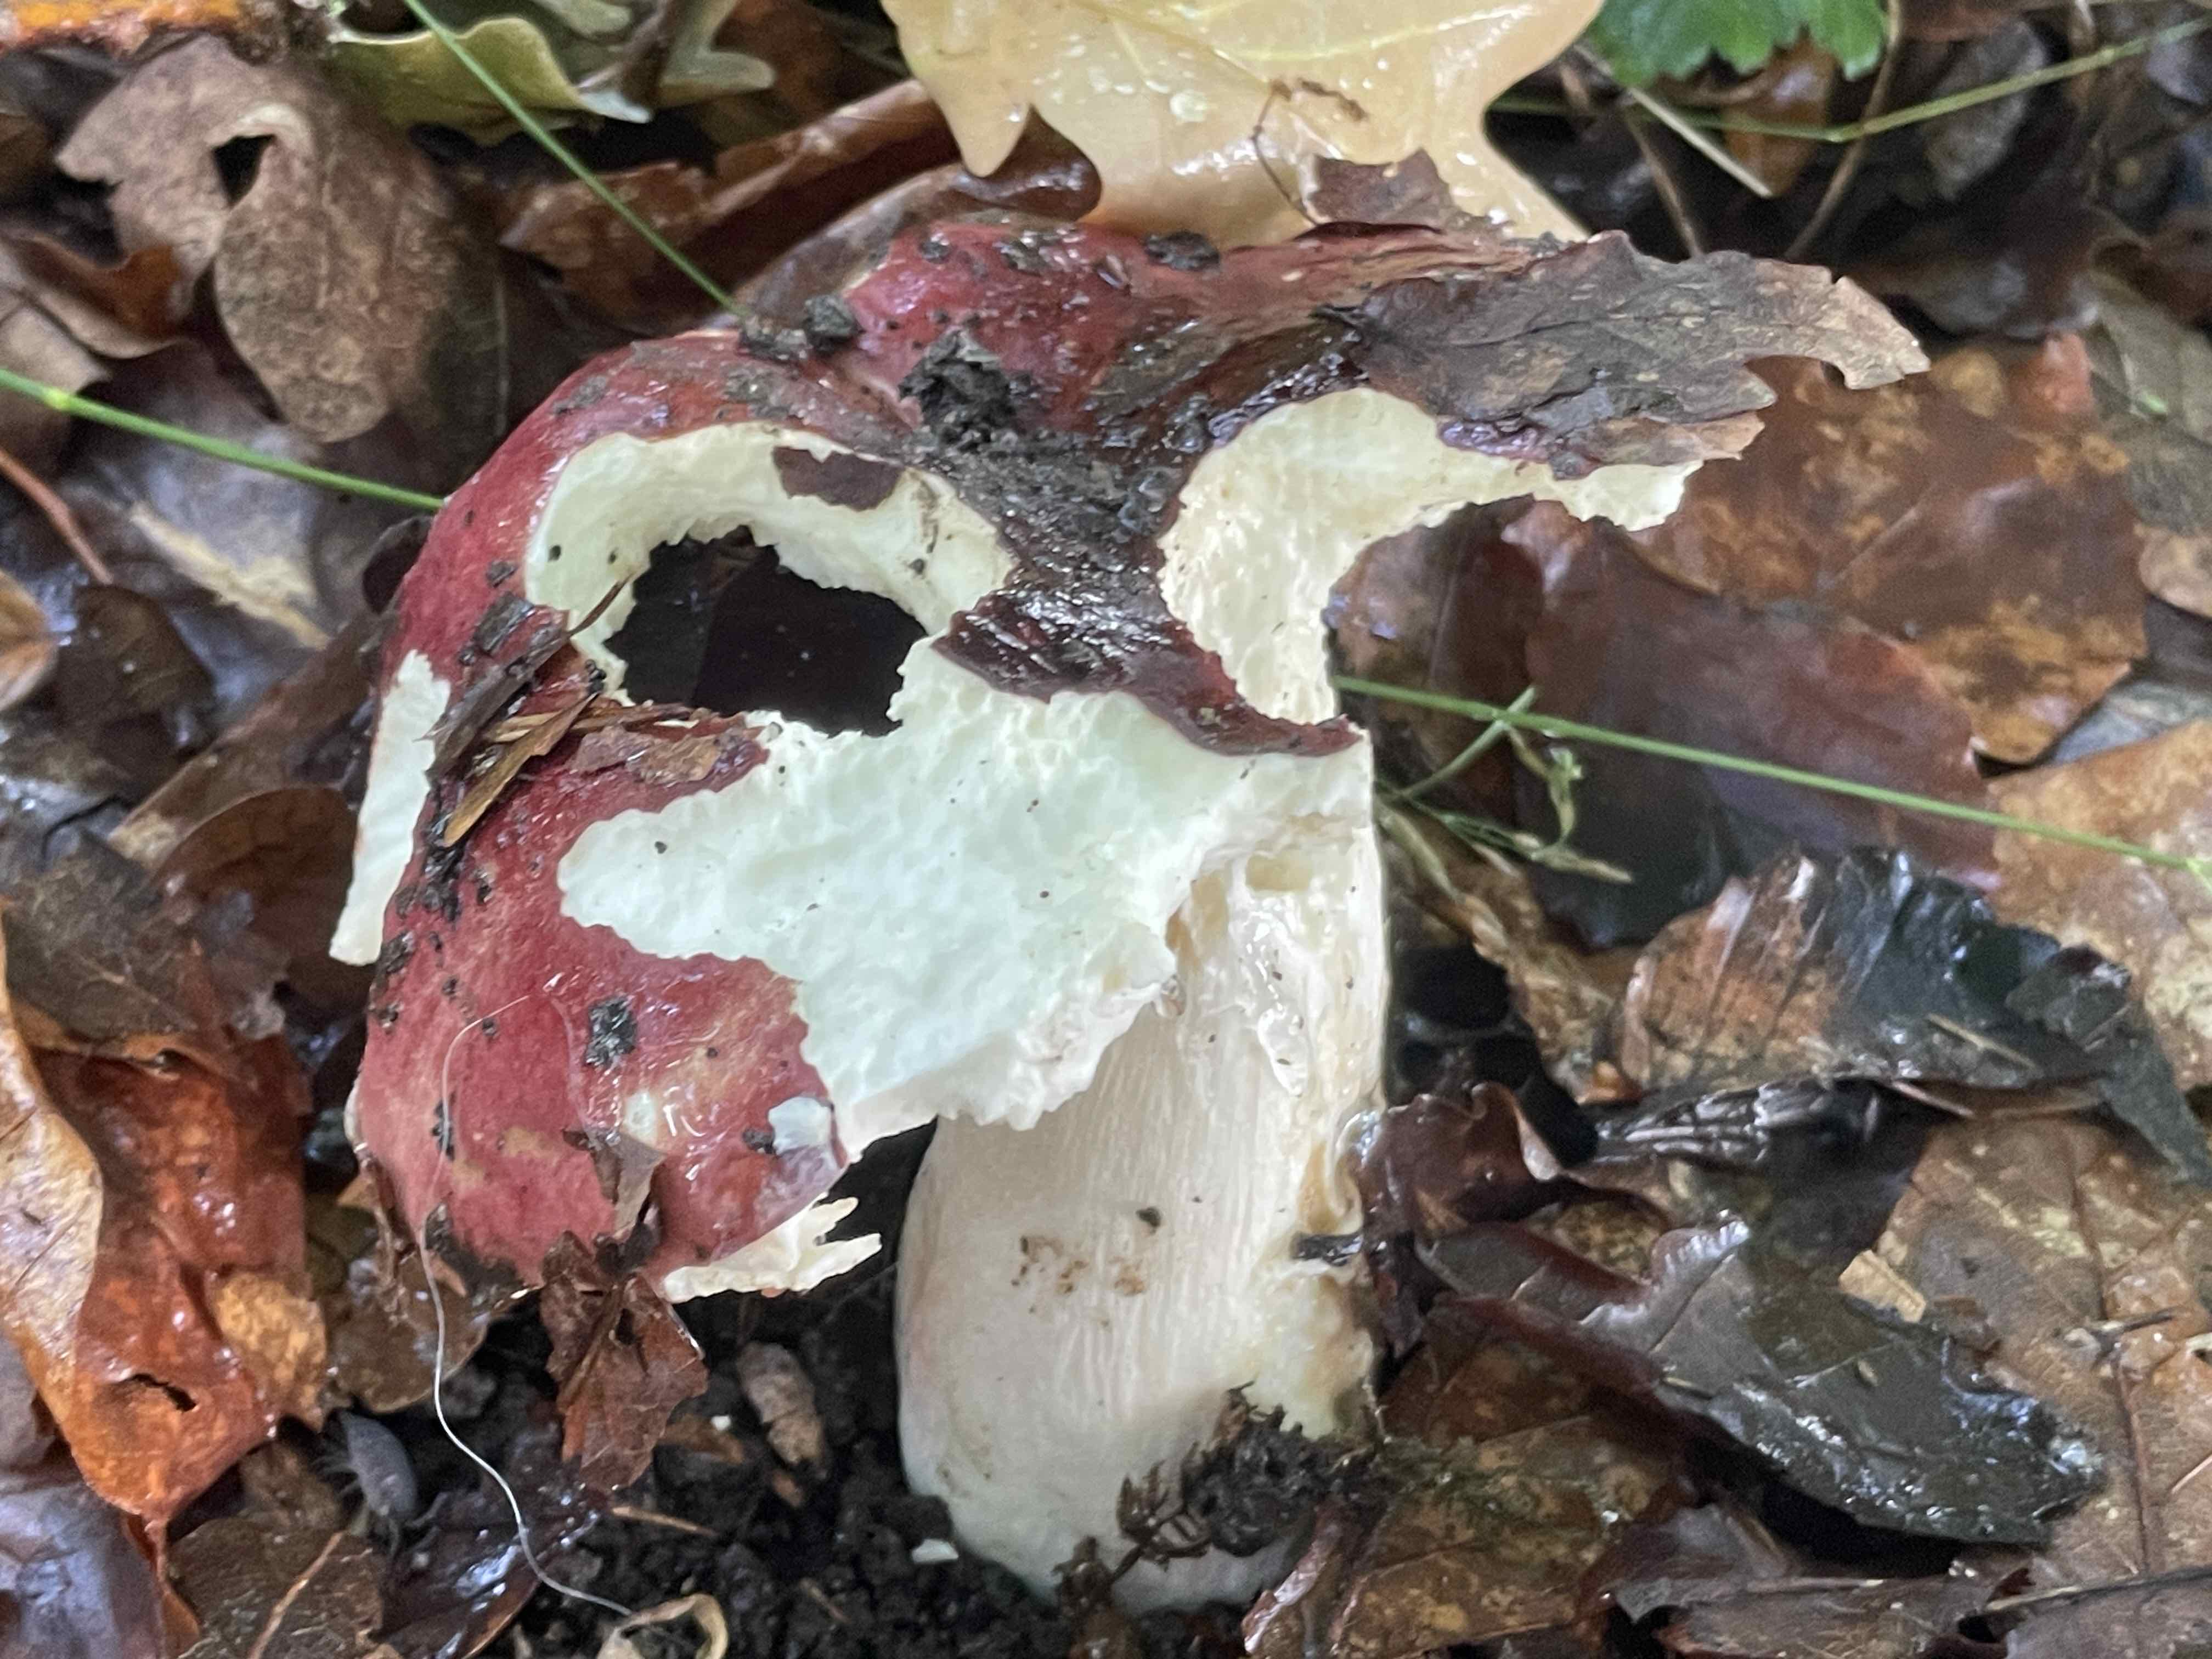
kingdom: Fungi
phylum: Basidiomycota
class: Agaricomycetes
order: Russulales
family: Russulaceae
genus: Russula
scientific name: Russula faginea
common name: bøge-skørhat
